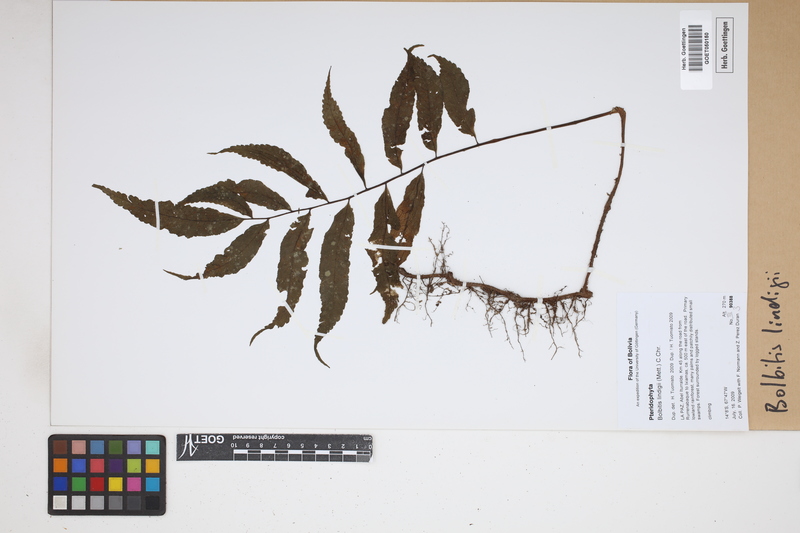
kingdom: Plantae
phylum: Tracheophyta
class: Polypodiopsida
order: Polypodiales
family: Dryopteridaceae
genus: Mickelia
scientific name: Mickelia lindigii
